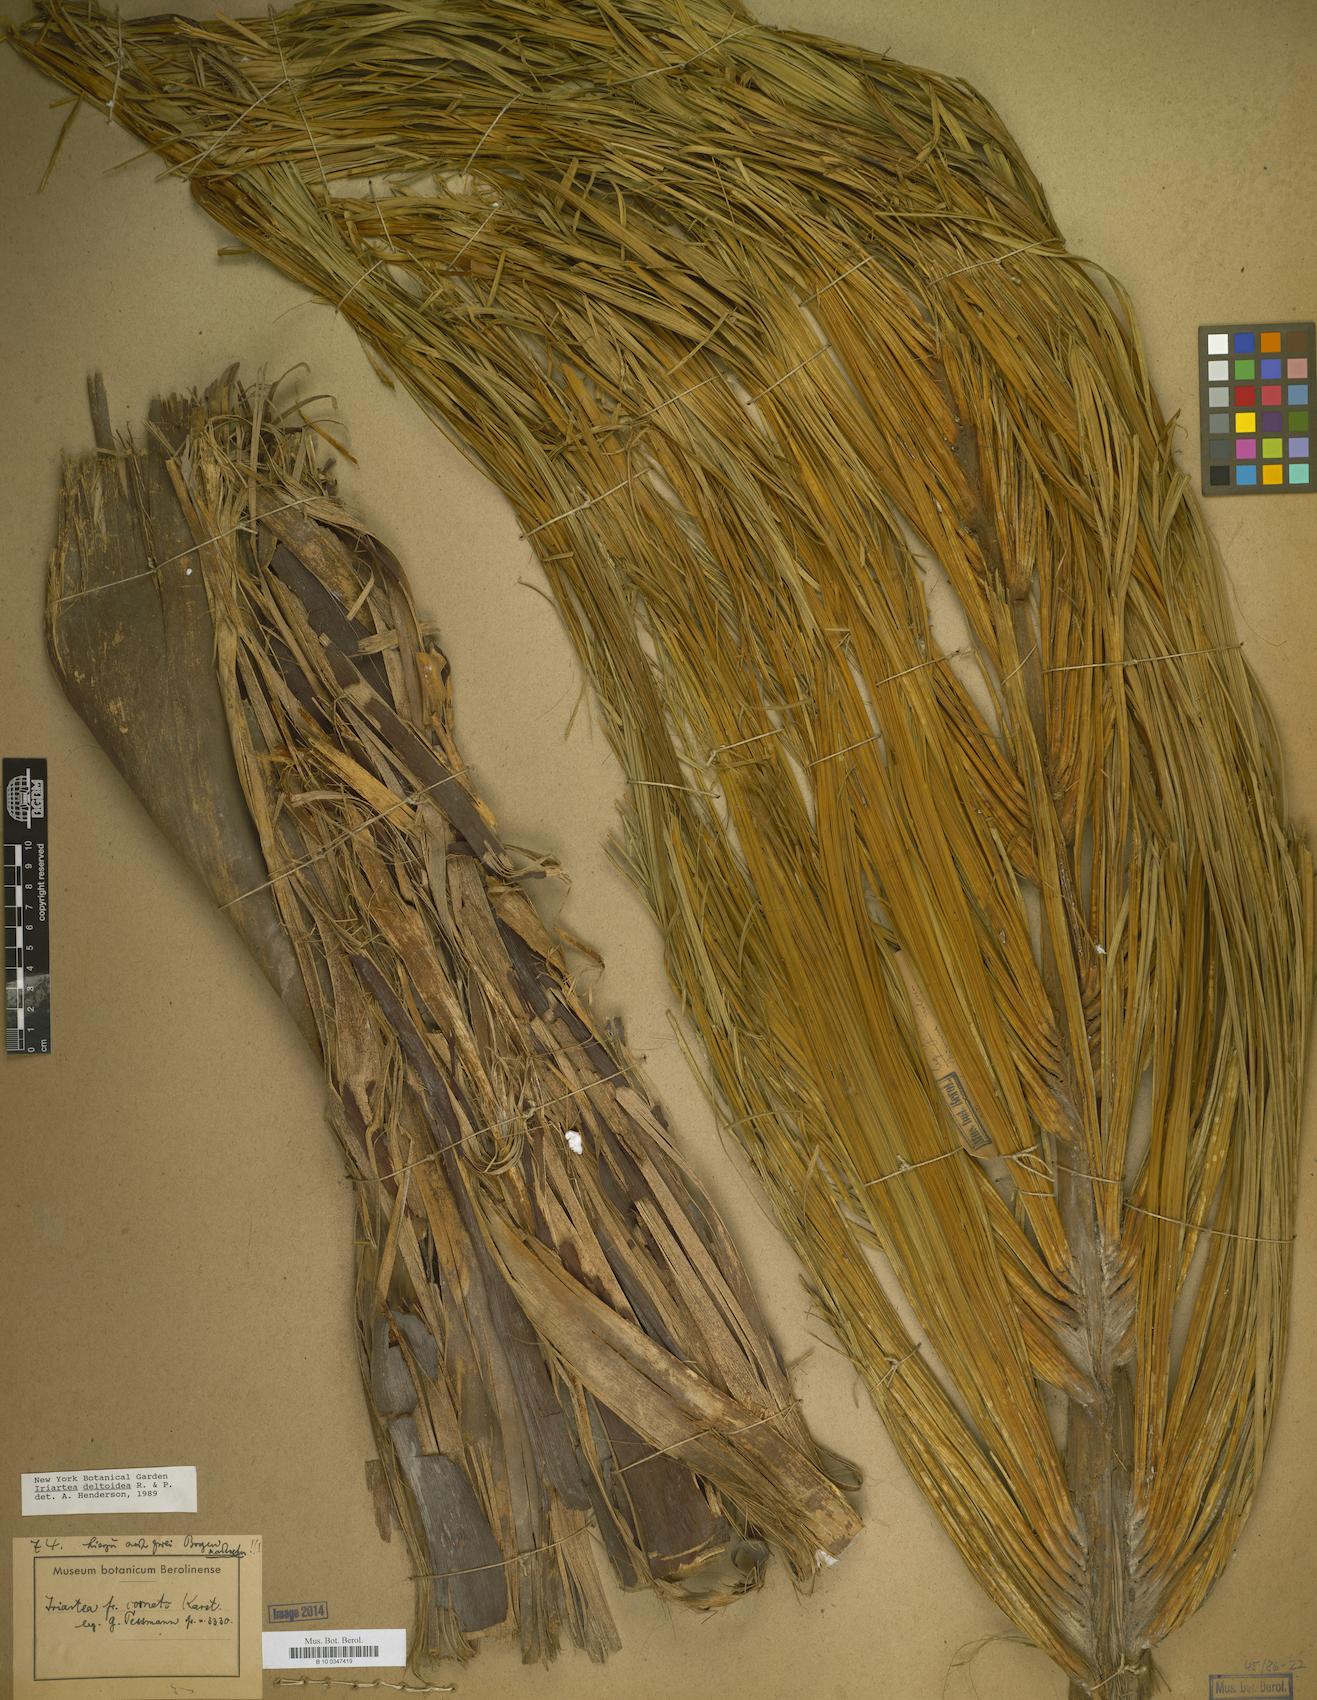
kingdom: Plantae
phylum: Tracheophyta
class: Liliopsida
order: Arecales
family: Arecaceae
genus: Iriartea
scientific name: Iriartea deltoidea
